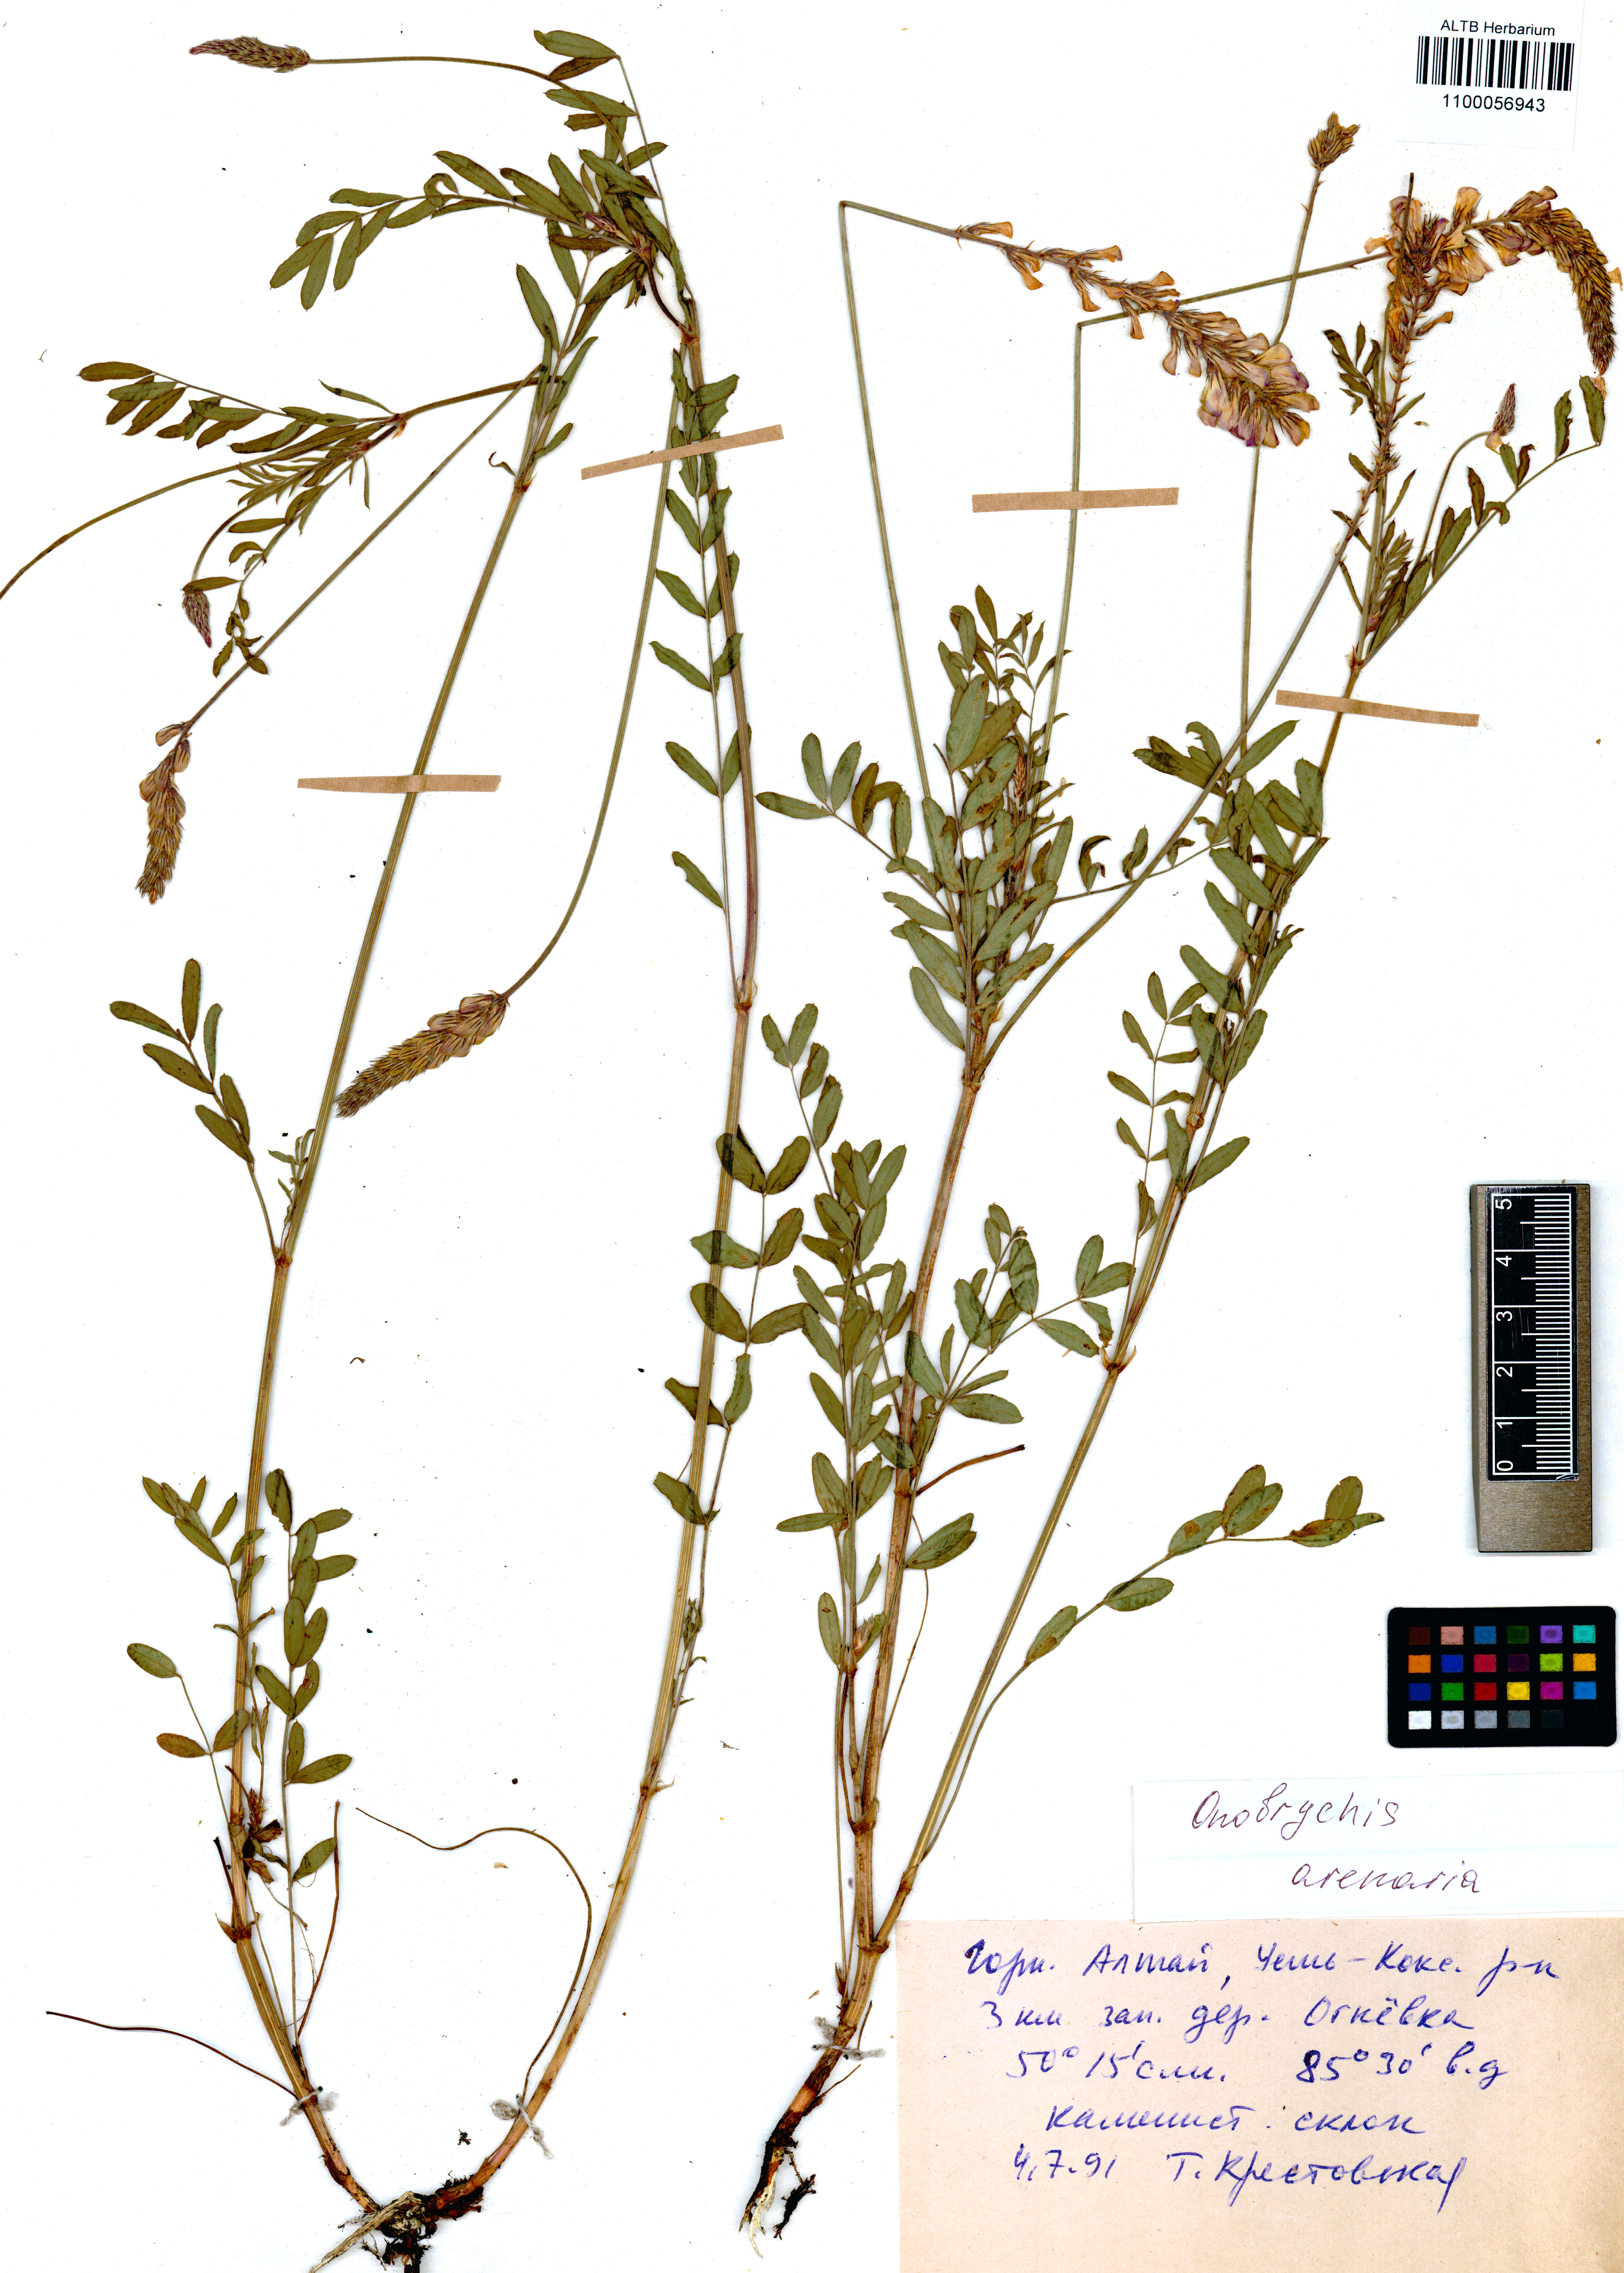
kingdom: Plantae
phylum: Tracheophyta
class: Magnoliopsida
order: Fabales
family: Fabaceae
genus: Onobrychis
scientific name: Onobrychis arenaria
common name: Sand esparcet
